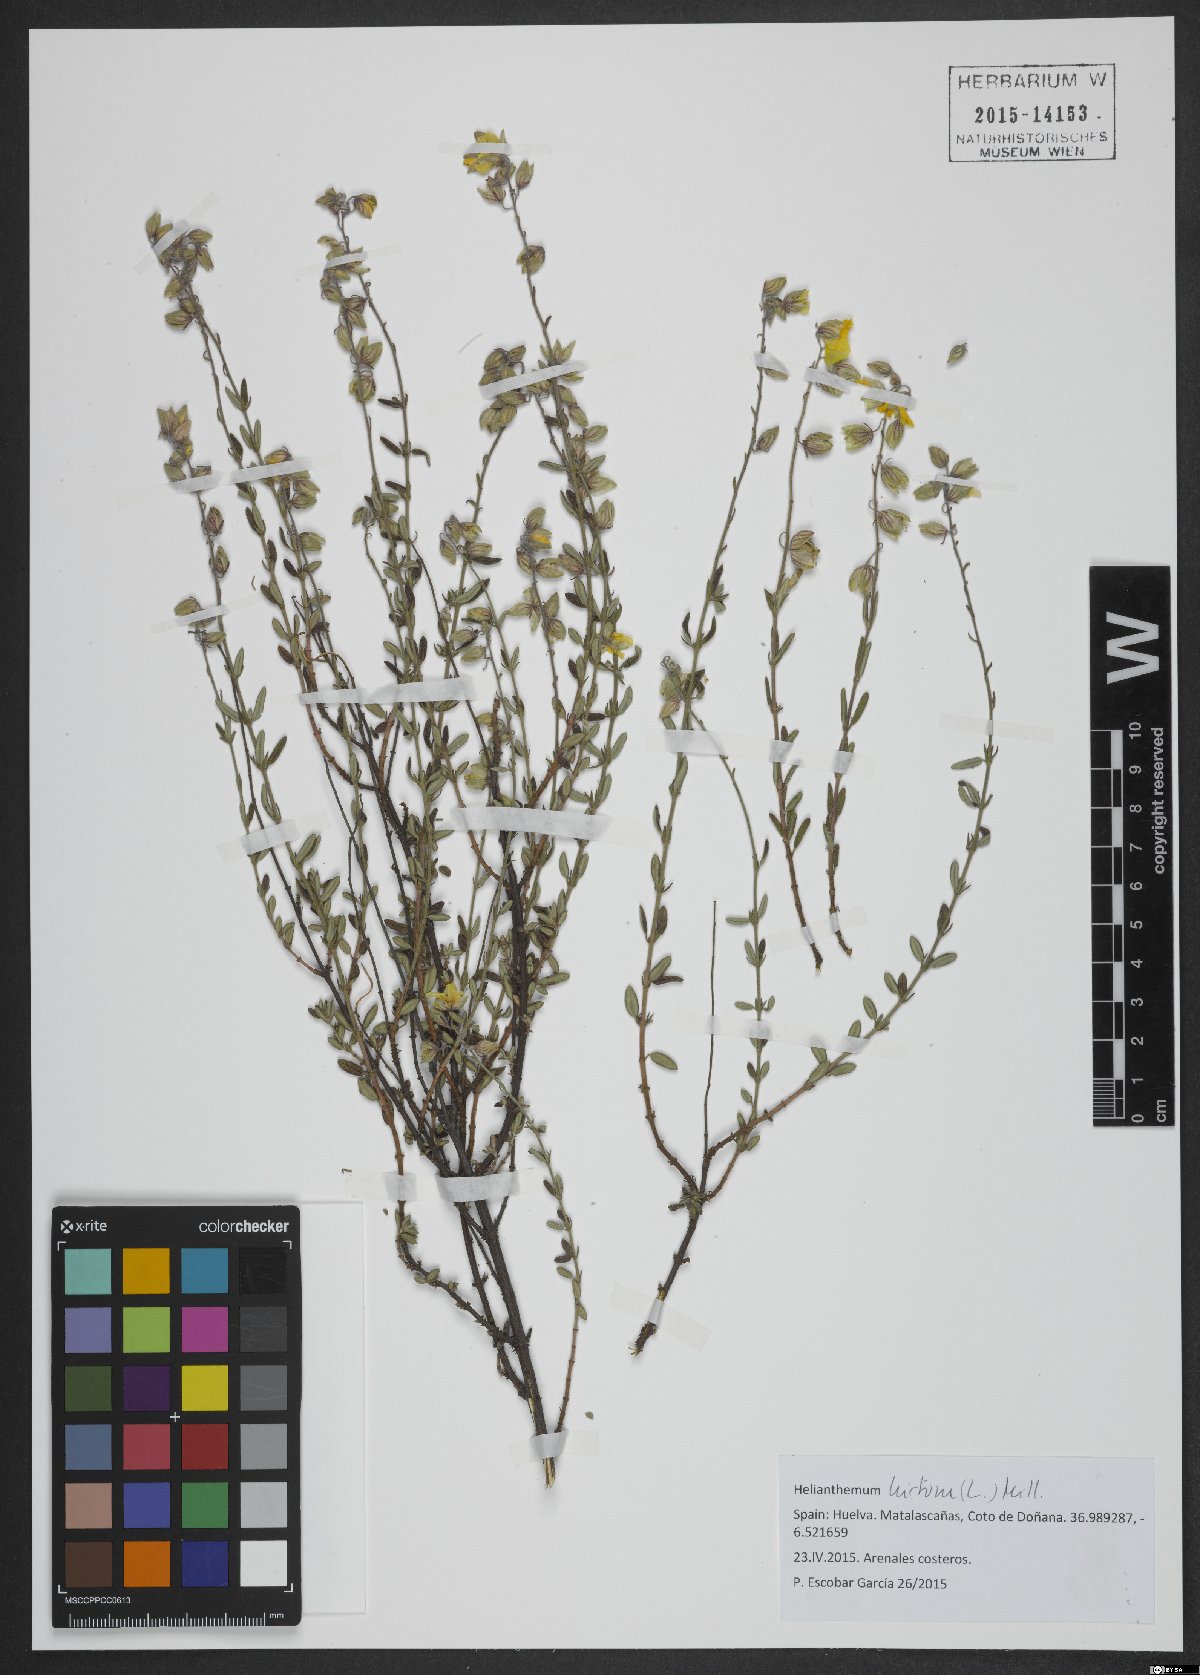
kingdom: Plantae
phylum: Tracheophyta
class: Magnoliopsida
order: Malvales
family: Cistaceae
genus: Helianthemum
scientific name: Helianthemum hirtum
